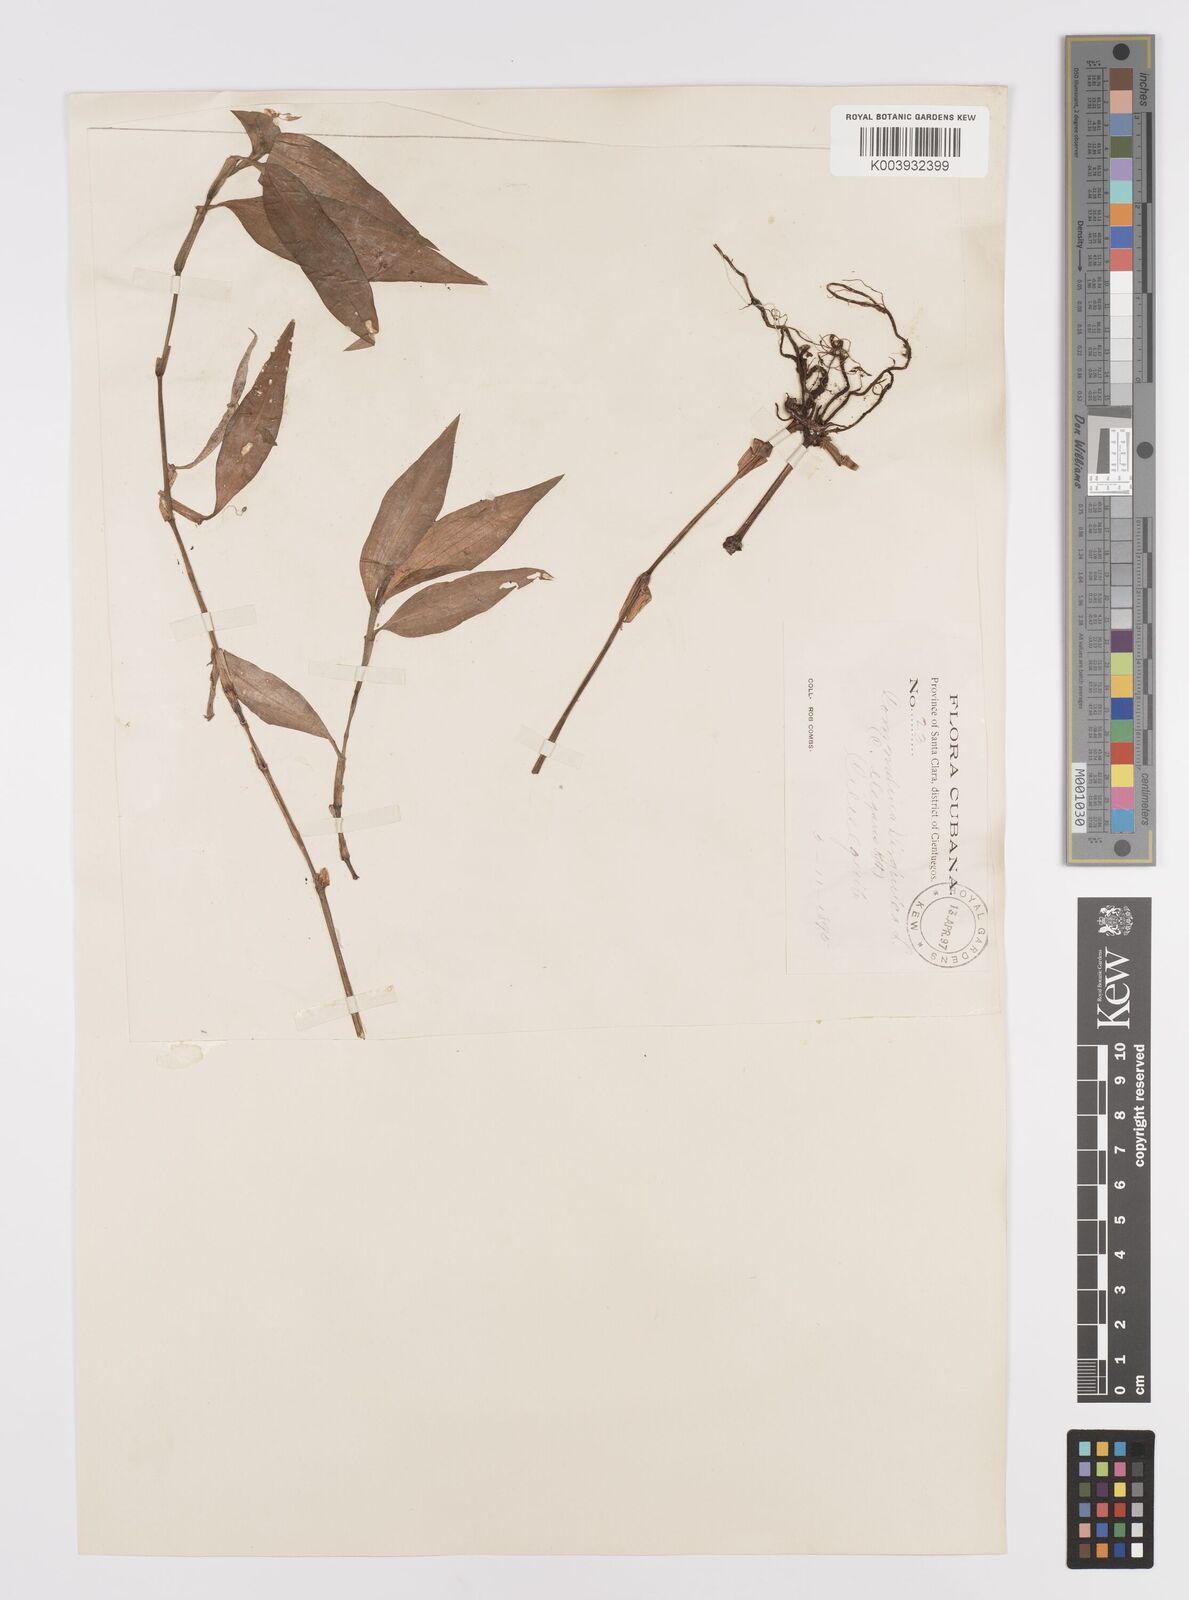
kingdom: Plantae
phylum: Tracheophyta
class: Liliopsida
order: Commelinales
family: Commelinaceae
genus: Commelina
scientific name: Commelina virginica
